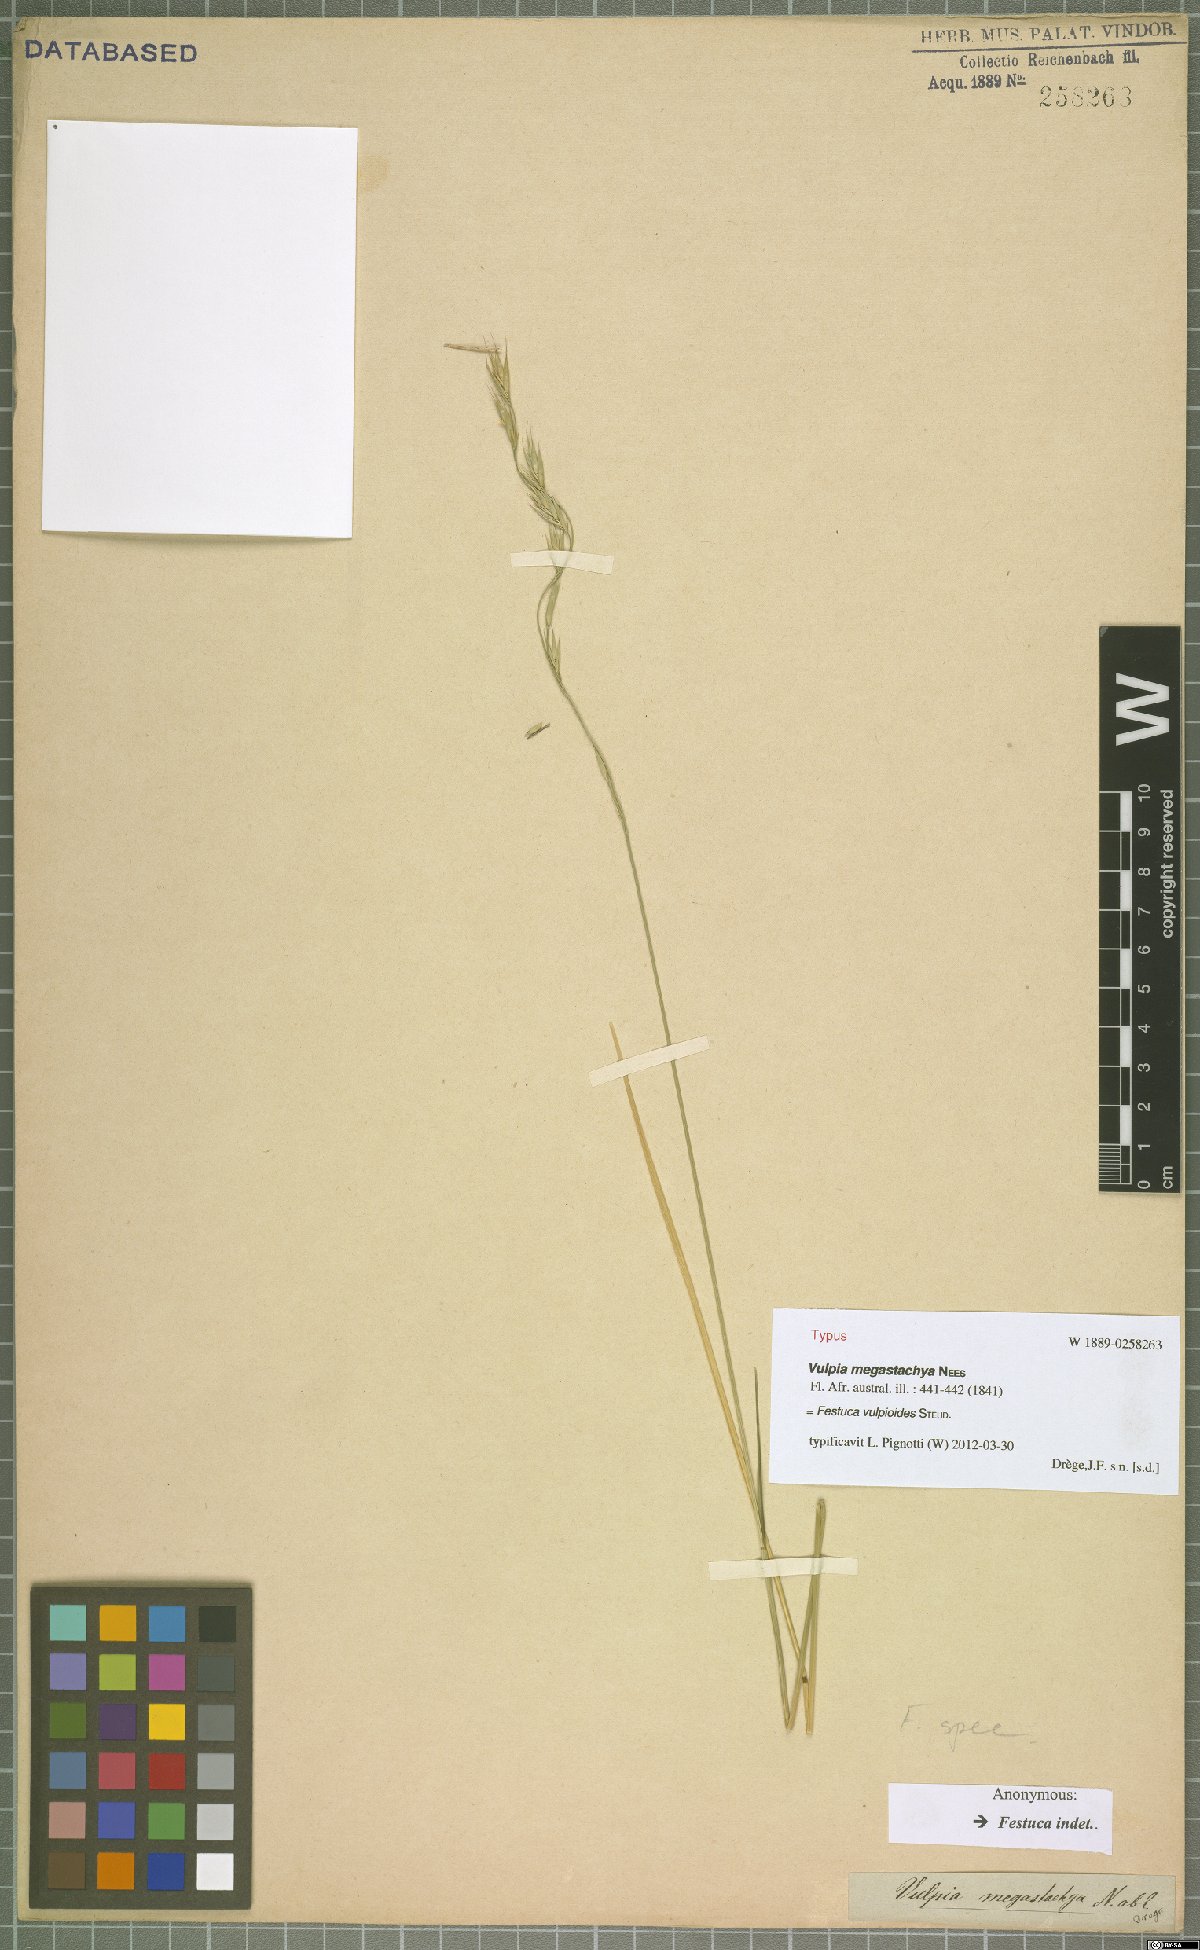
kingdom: Plantae
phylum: Tracheophyta
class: Liliopsida
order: Poales
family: Poaceae
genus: Festuca
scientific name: Festuca vulpioides
